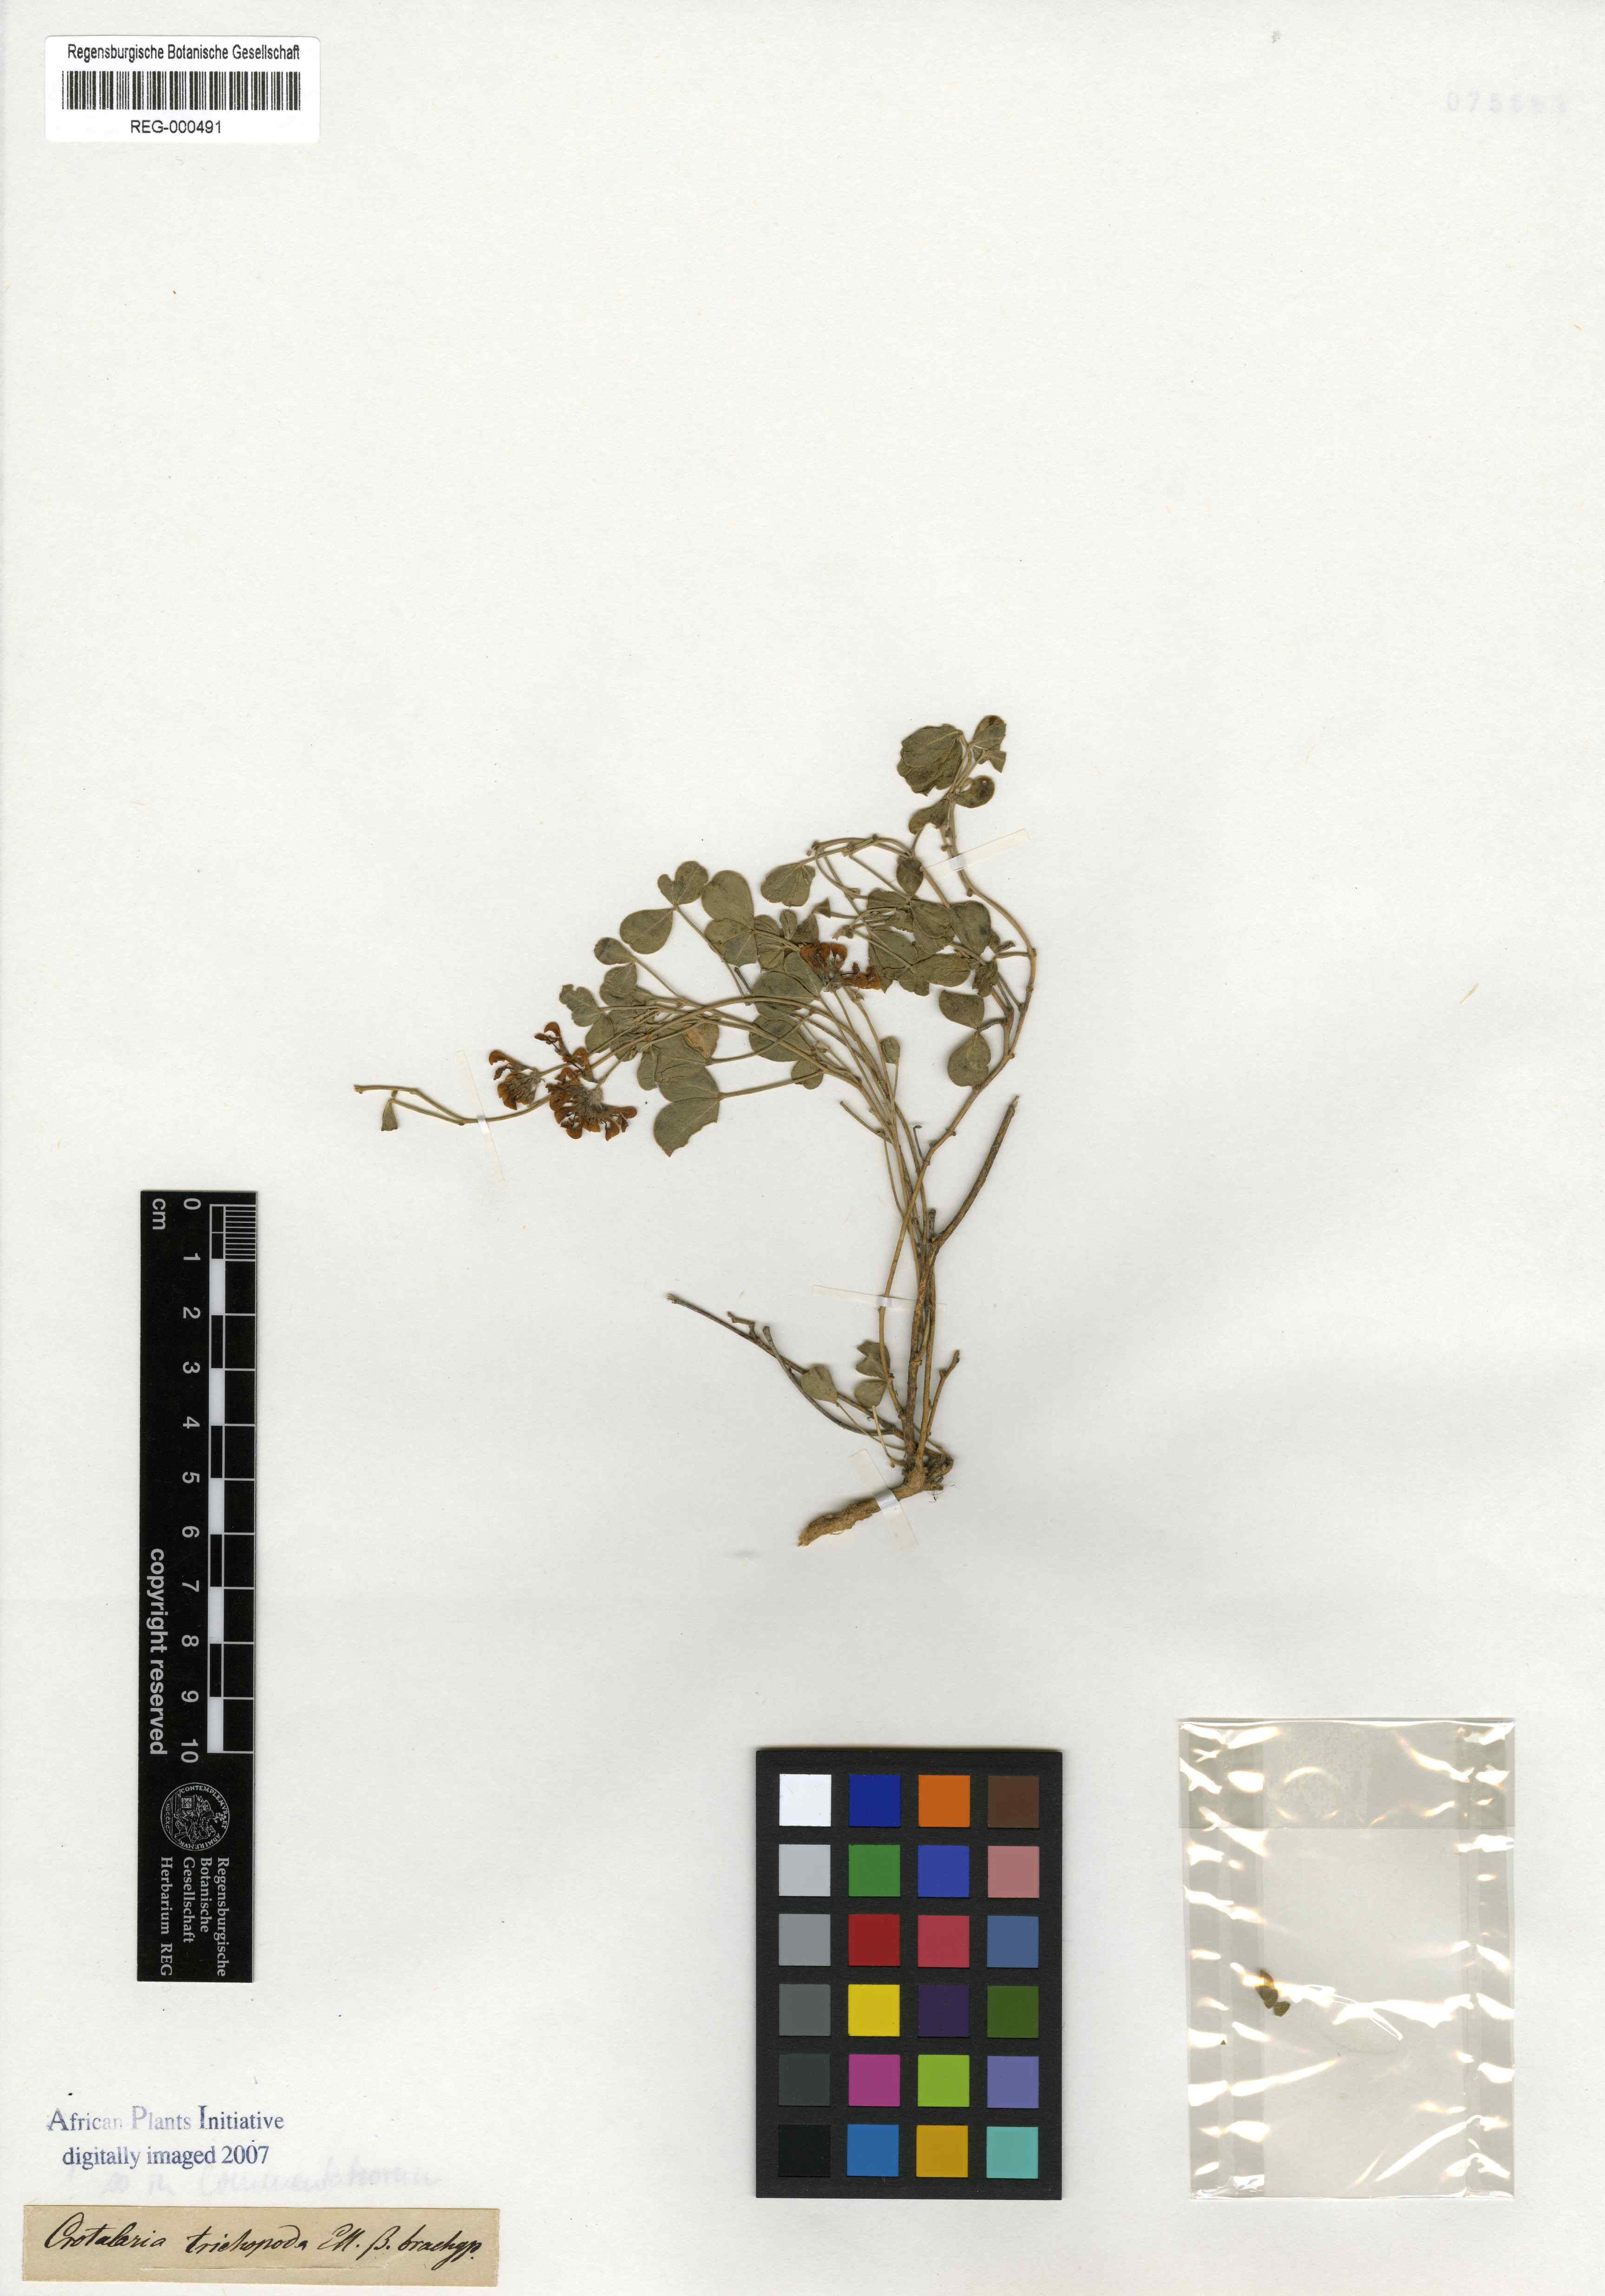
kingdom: Plantae
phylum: Tracheophyta
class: Magnoliopsida
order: Fabales
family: Fabaceae
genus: Lotononis
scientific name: Lotononis glabra
